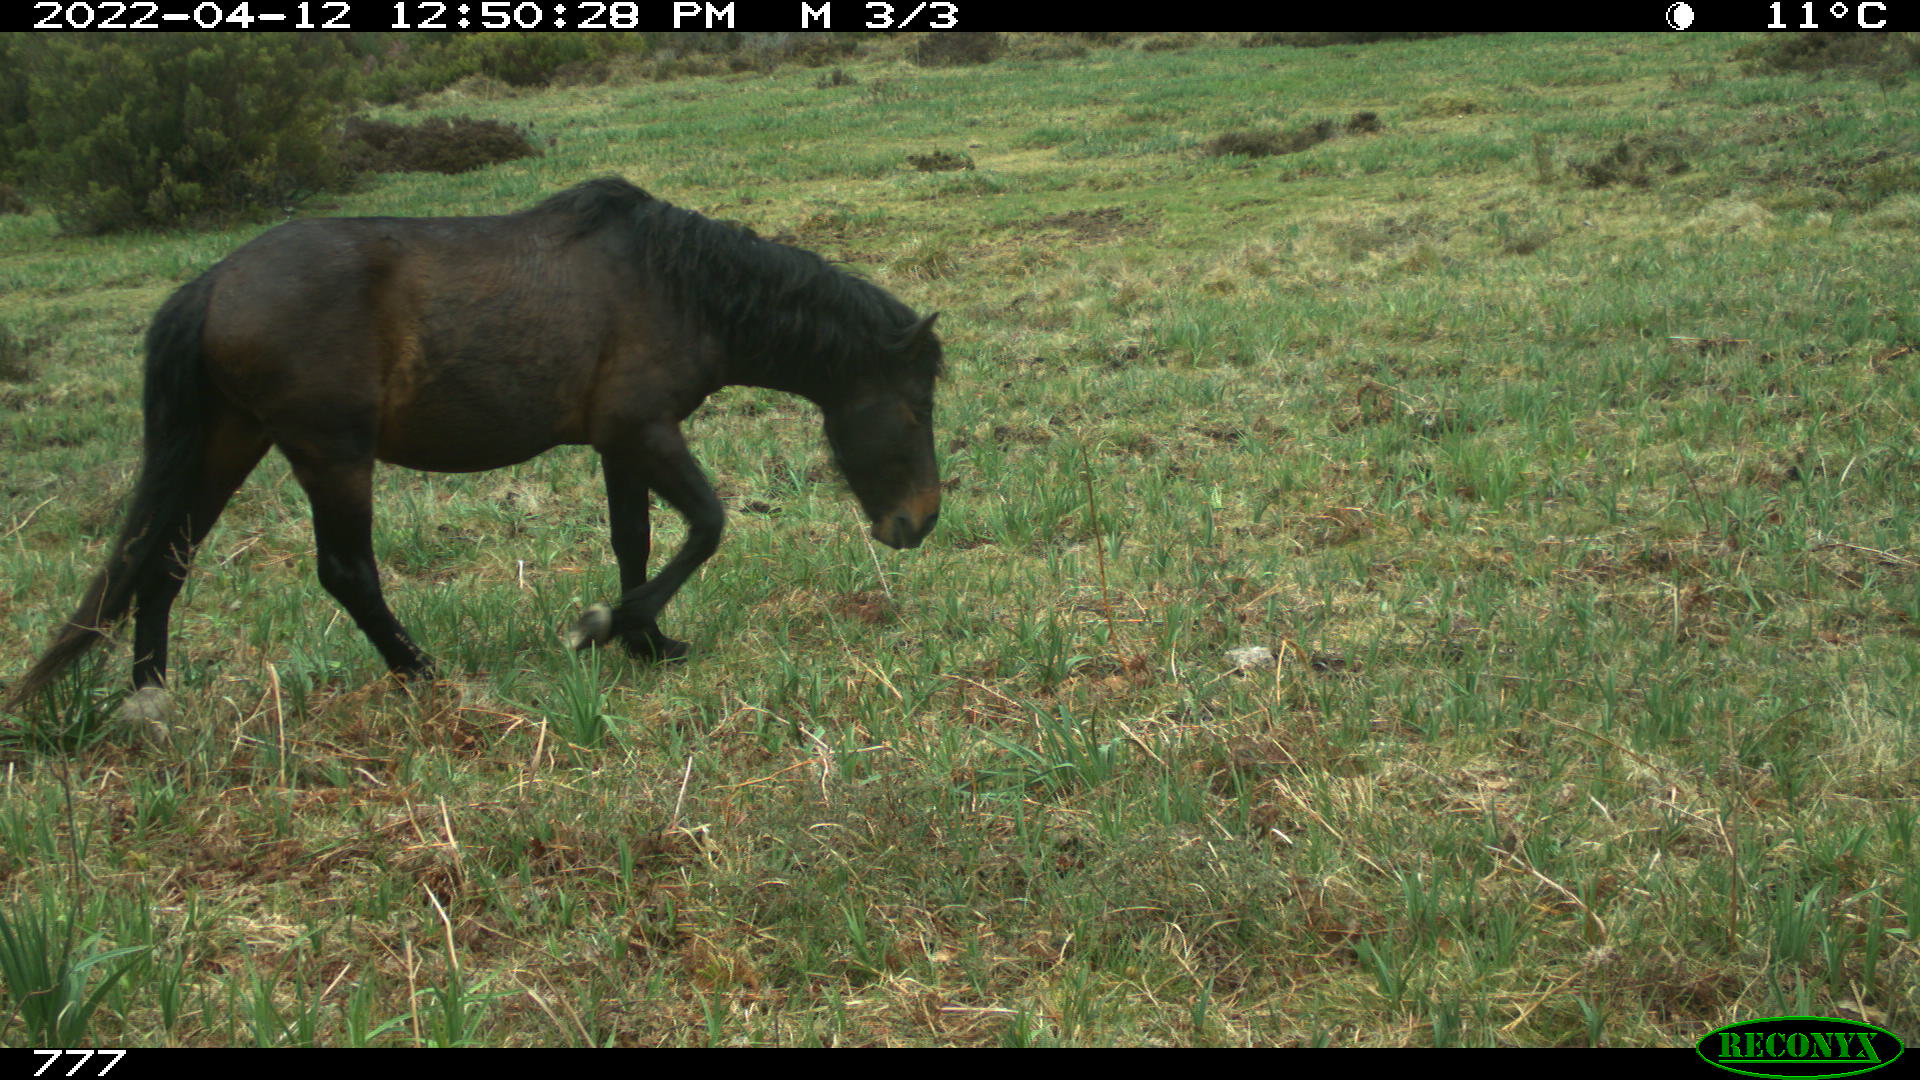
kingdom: Animalia
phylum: Chordata
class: Mammalia
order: Perissodactyla
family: Equidae
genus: Equus
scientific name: Equus caballus
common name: Horse
